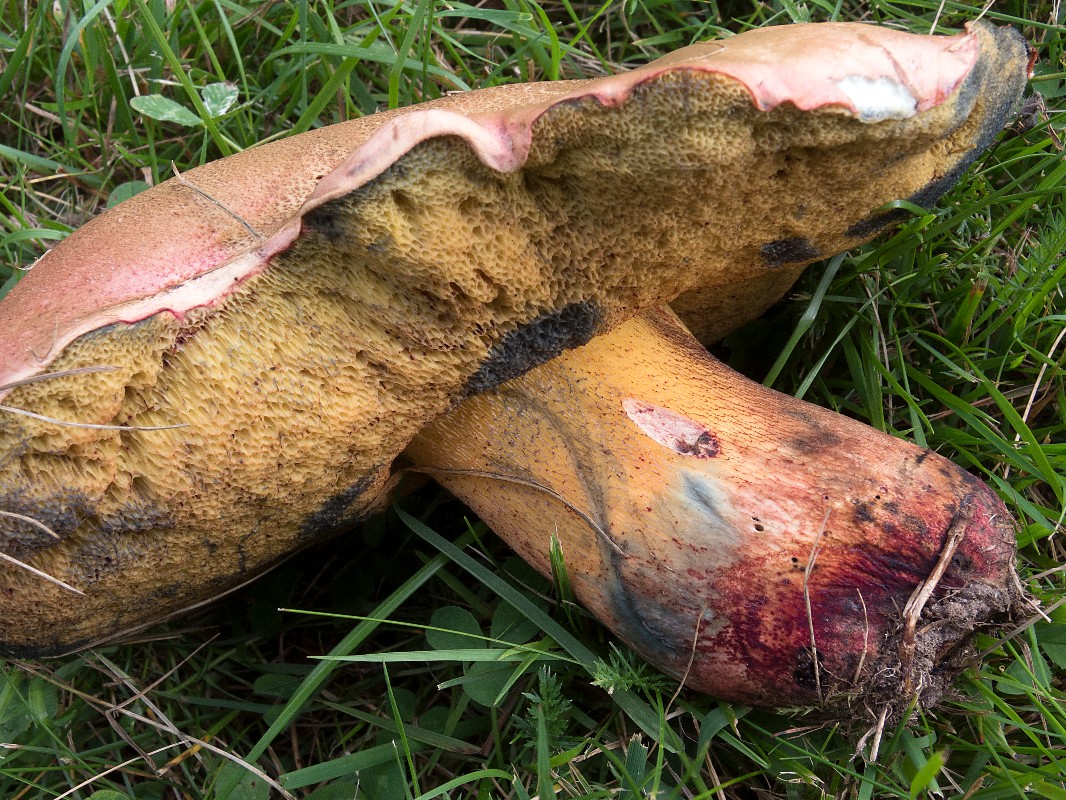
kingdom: Fungi
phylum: Basidiomycota
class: Agaricomycetes
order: Boletales
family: Boletaceae
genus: Rubroboletus
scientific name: Rubroboletus legaliae
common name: djævle-rørhat
